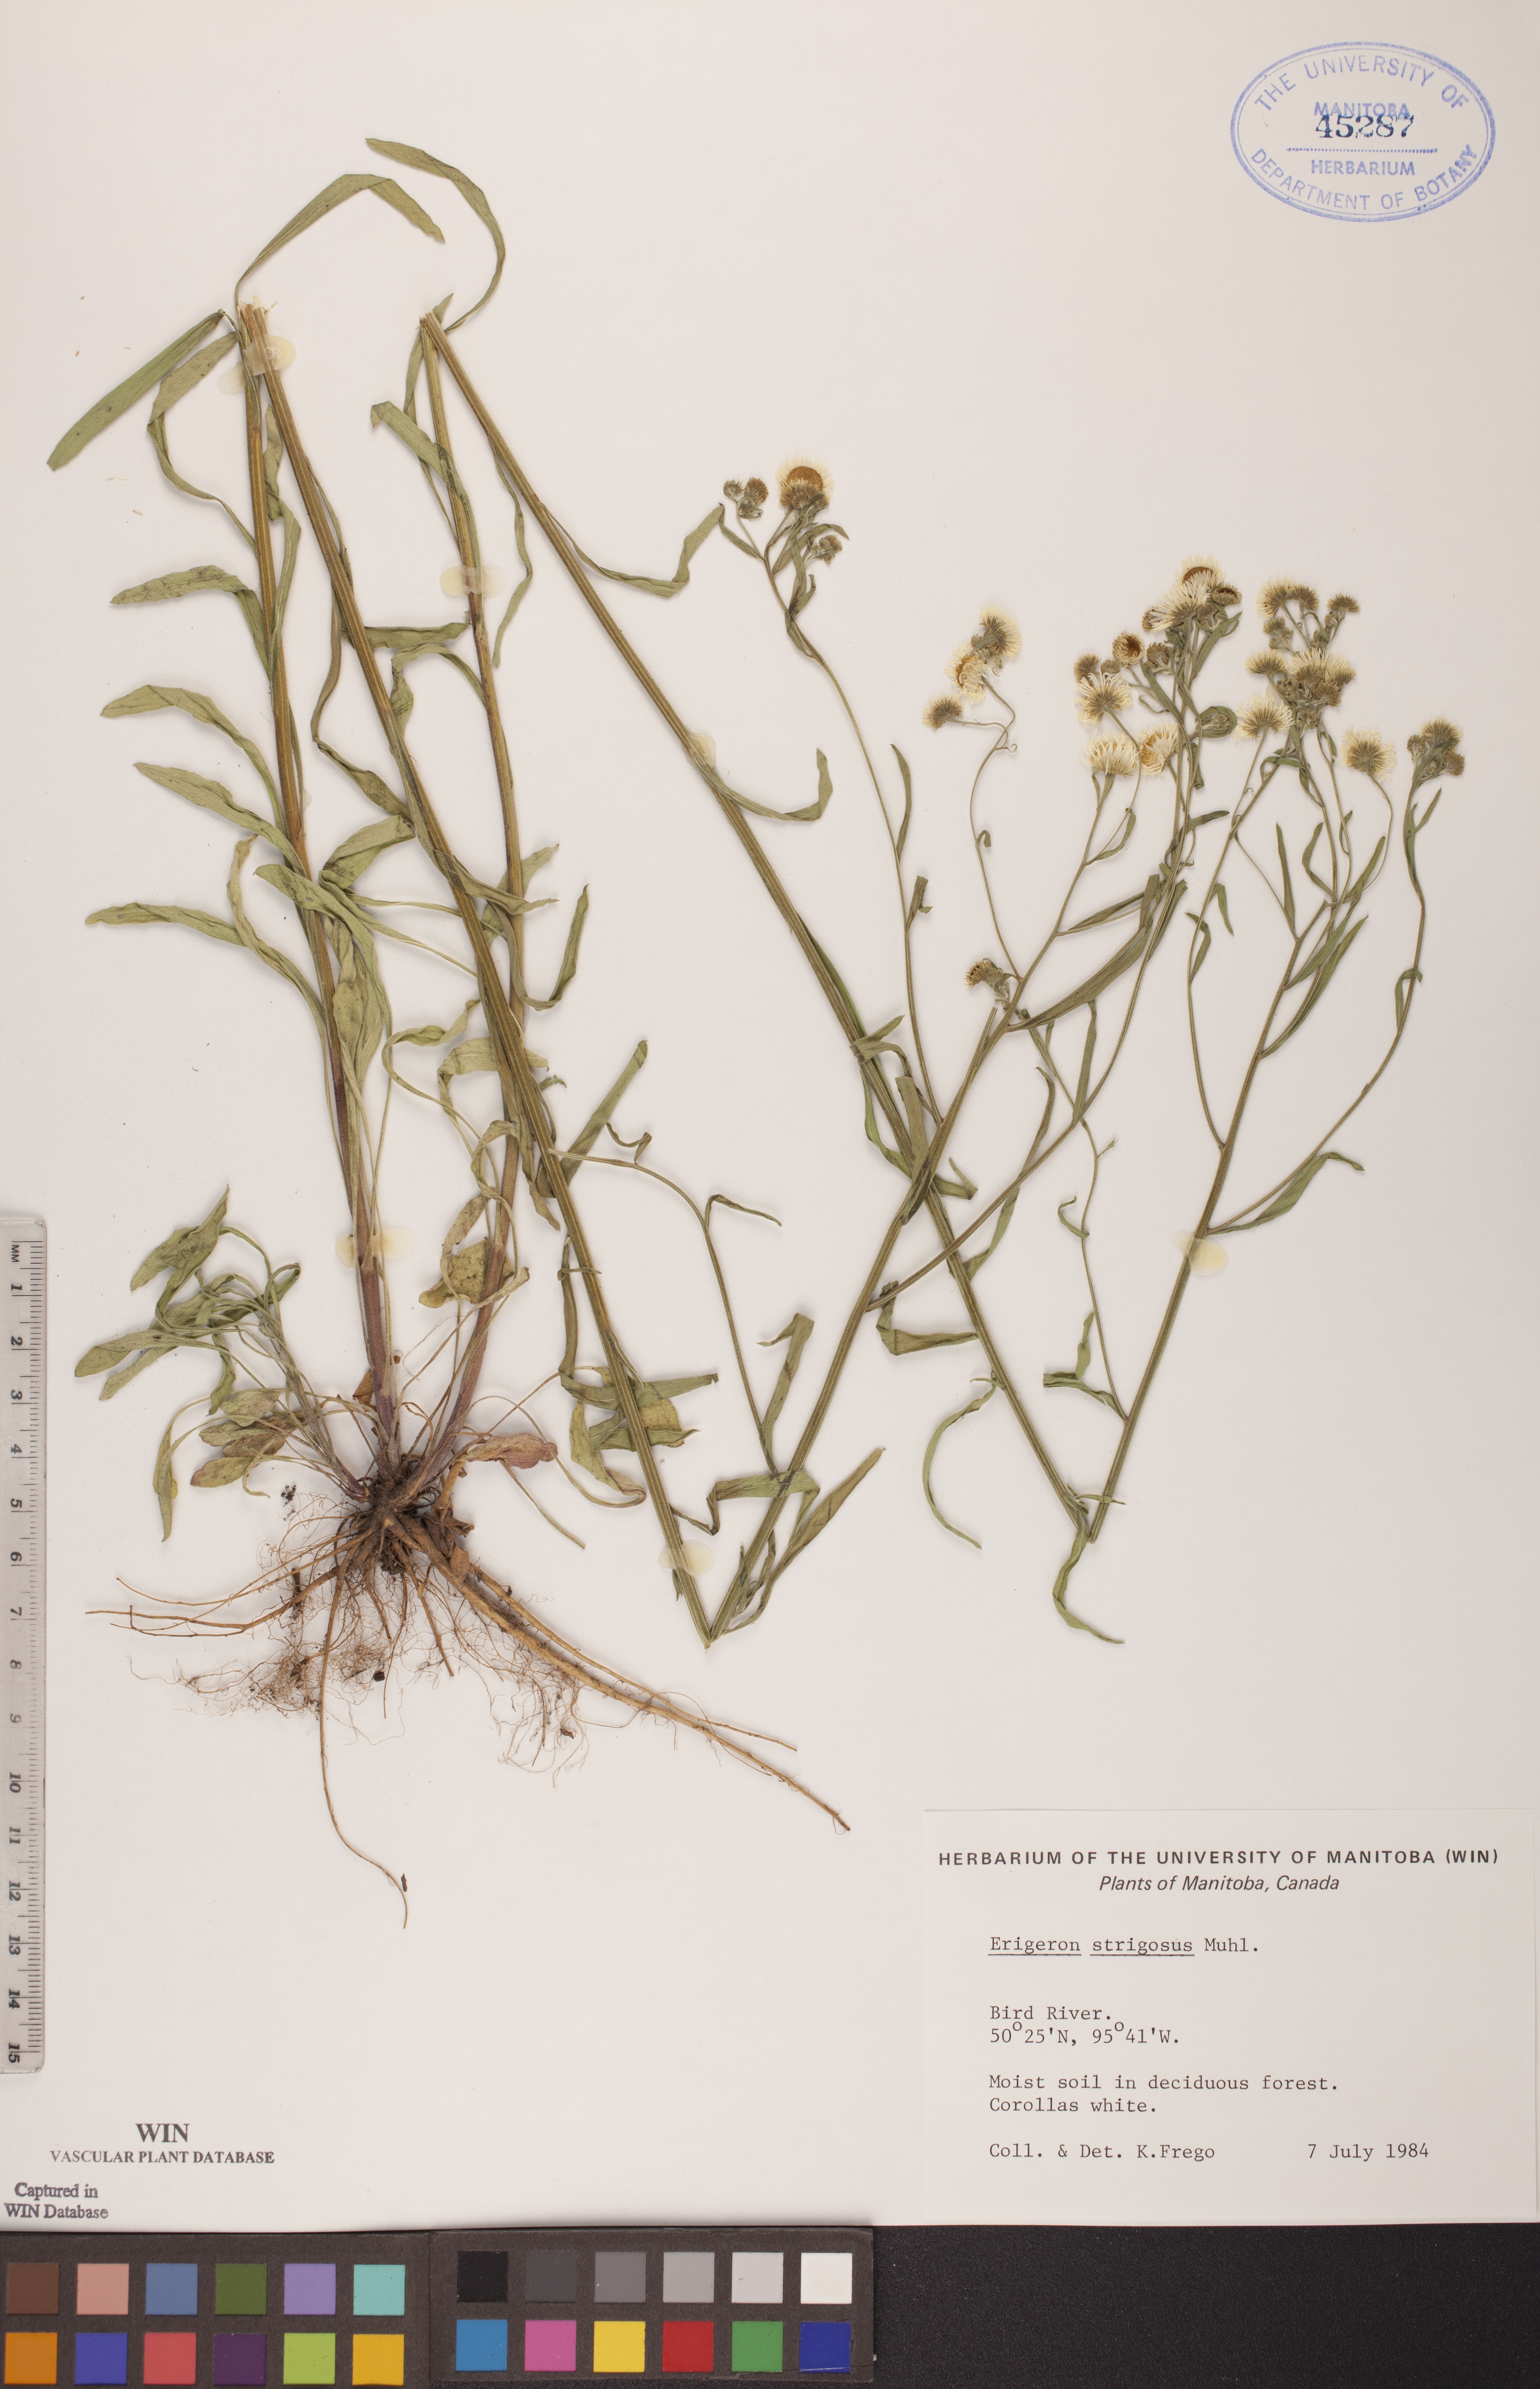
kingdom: Plantae
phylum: Tracheophyta
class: Magnoliopsida
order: Asterales
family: Asteraceae
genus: Erigeron
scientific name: Erigeron strigosus
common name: Common eastern fleabane
